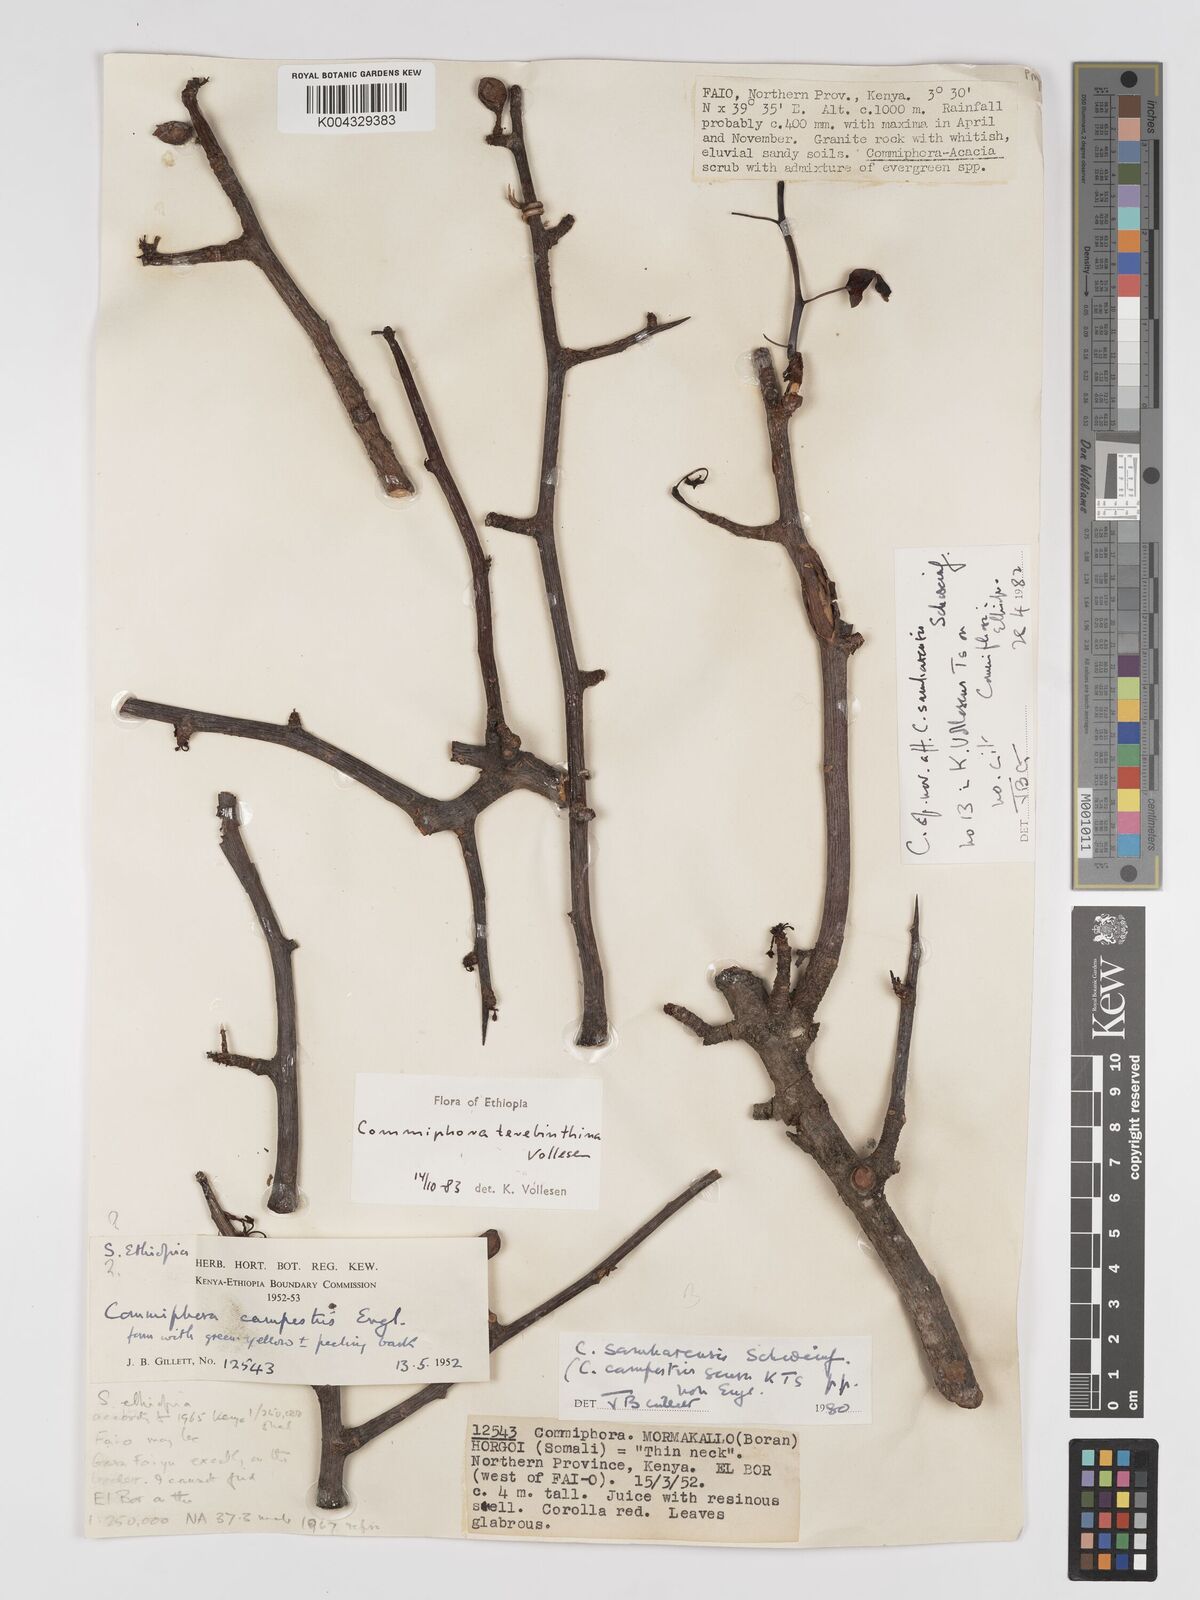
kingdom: Plantae
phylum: Tracheophyta
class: Magnoliopsida
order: Sapindales
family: Burseraceae
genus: Commiphora
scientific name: Commiphora samharensis
